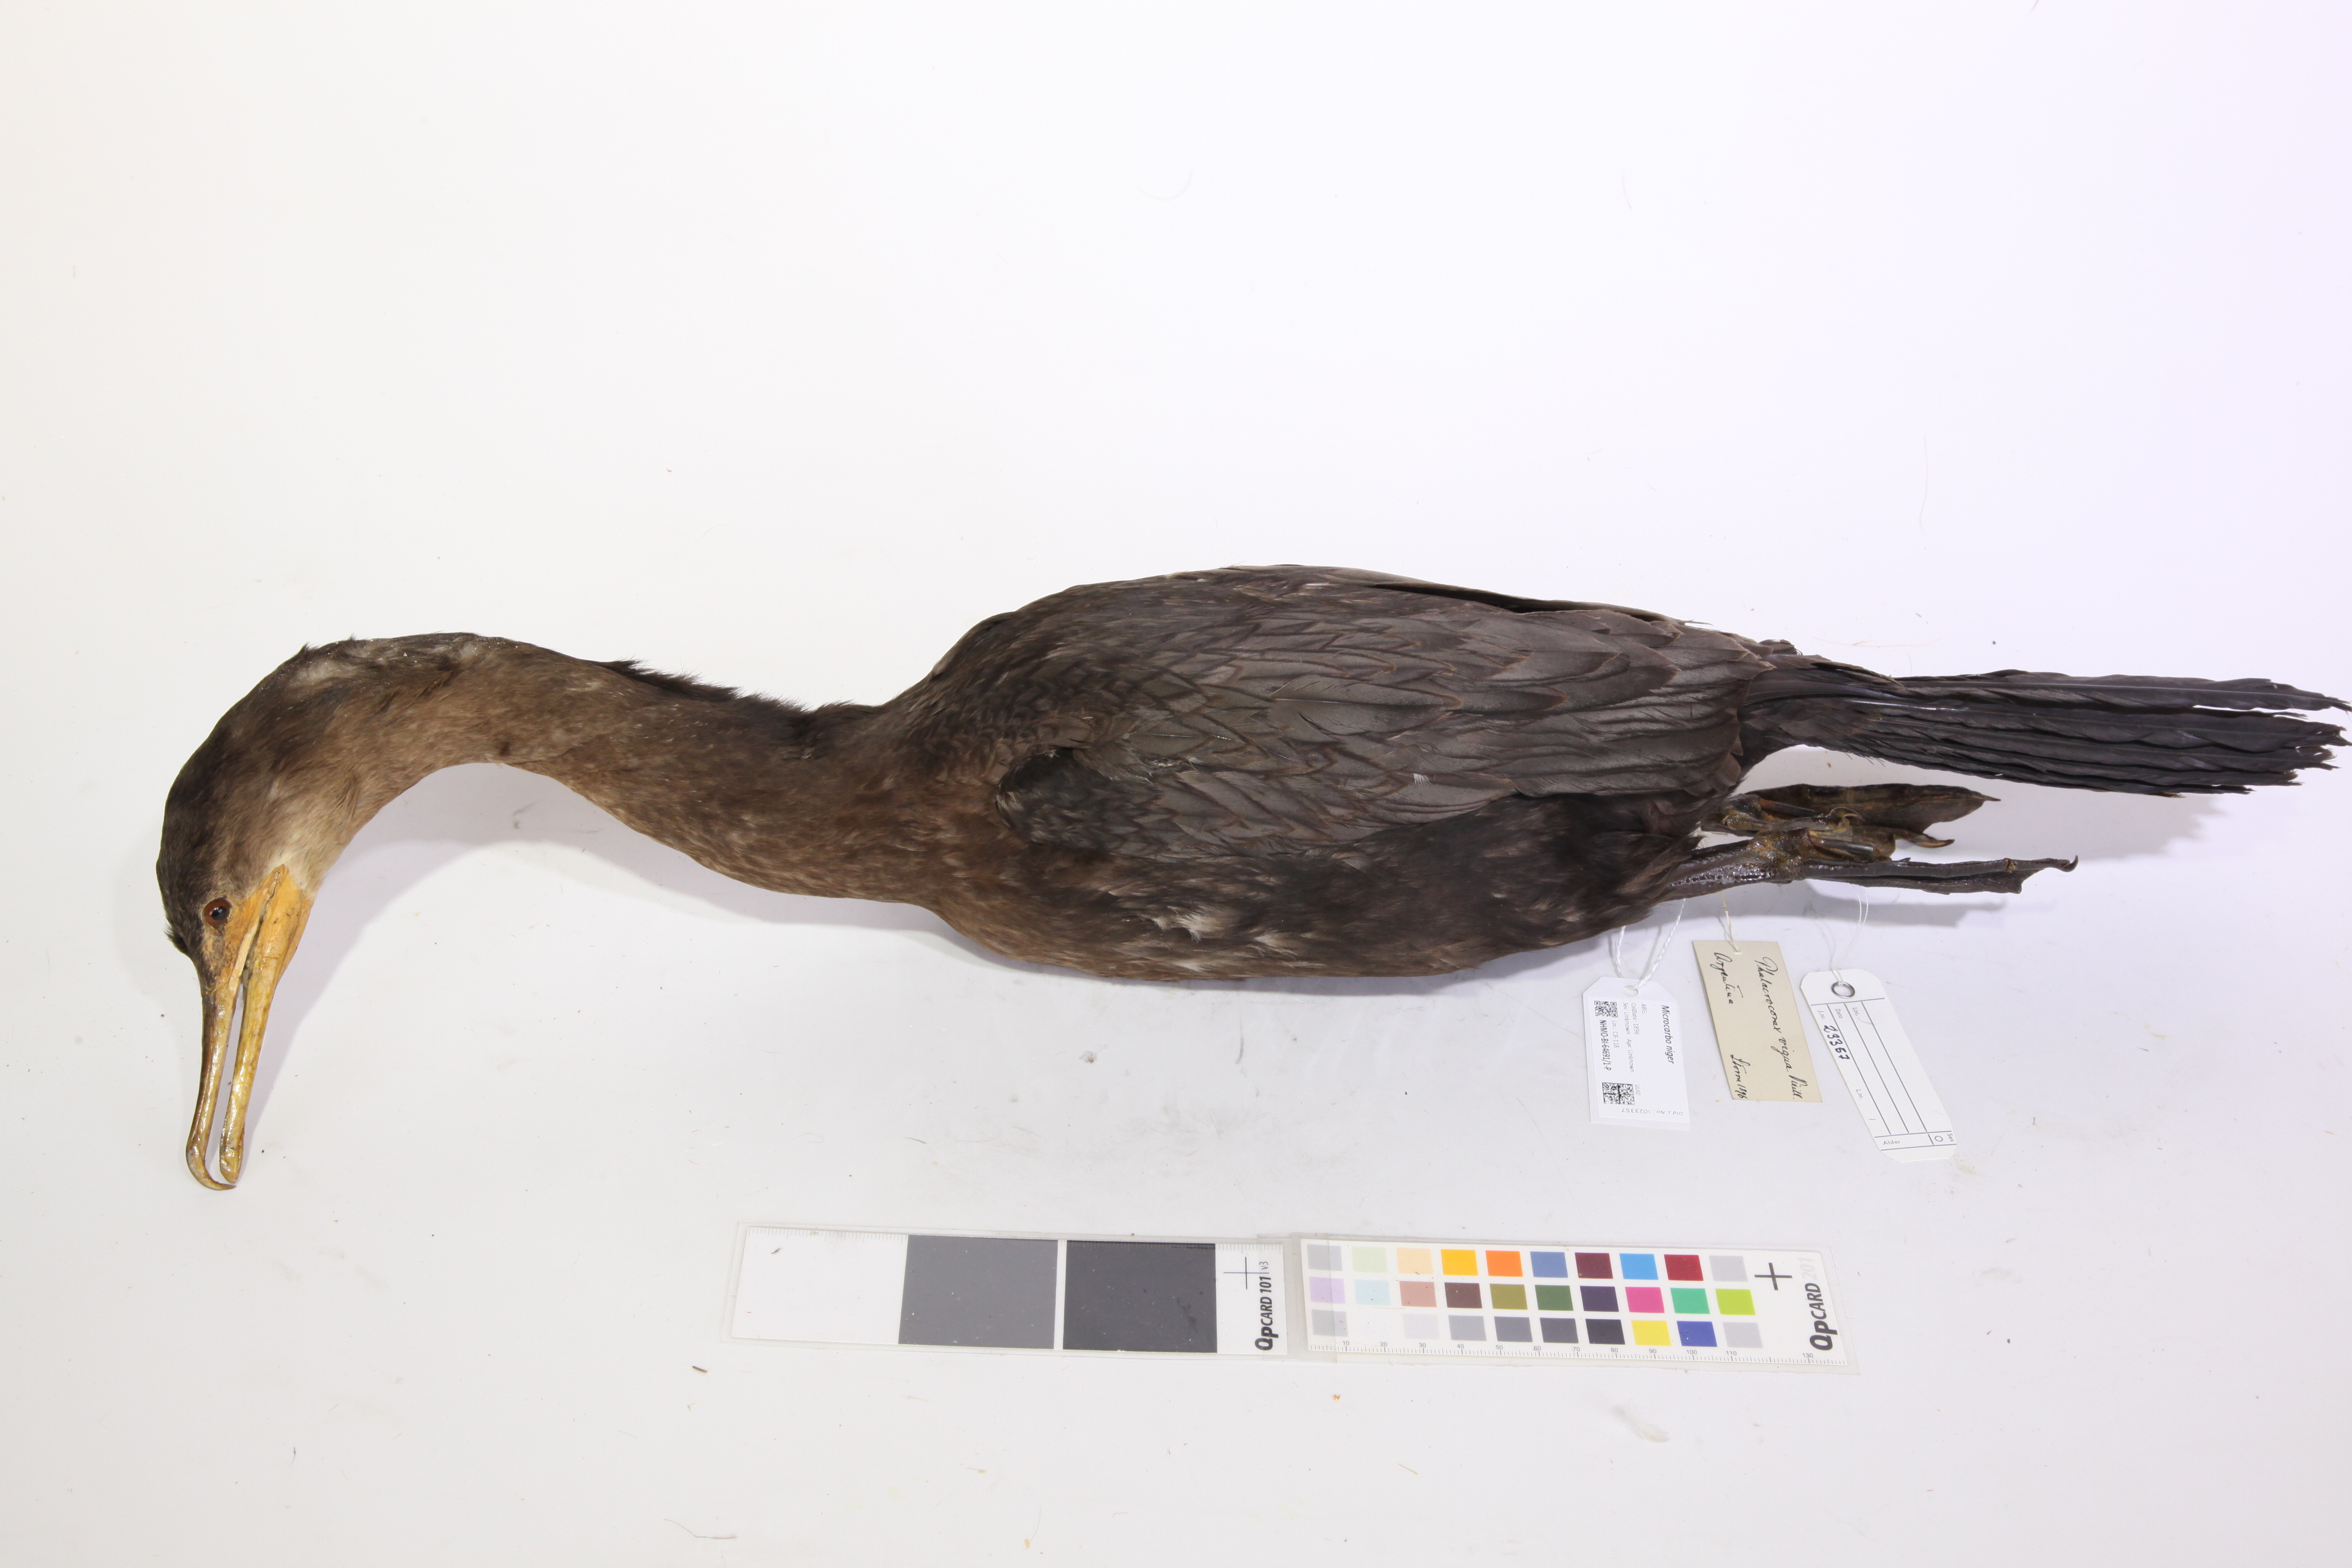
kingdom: Animalia
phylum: Chordata
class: Aves
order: Suliformes
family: Phalacrocoracidae
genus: Microcarbo
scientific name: Microcarbo niger
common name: Little cormorant
